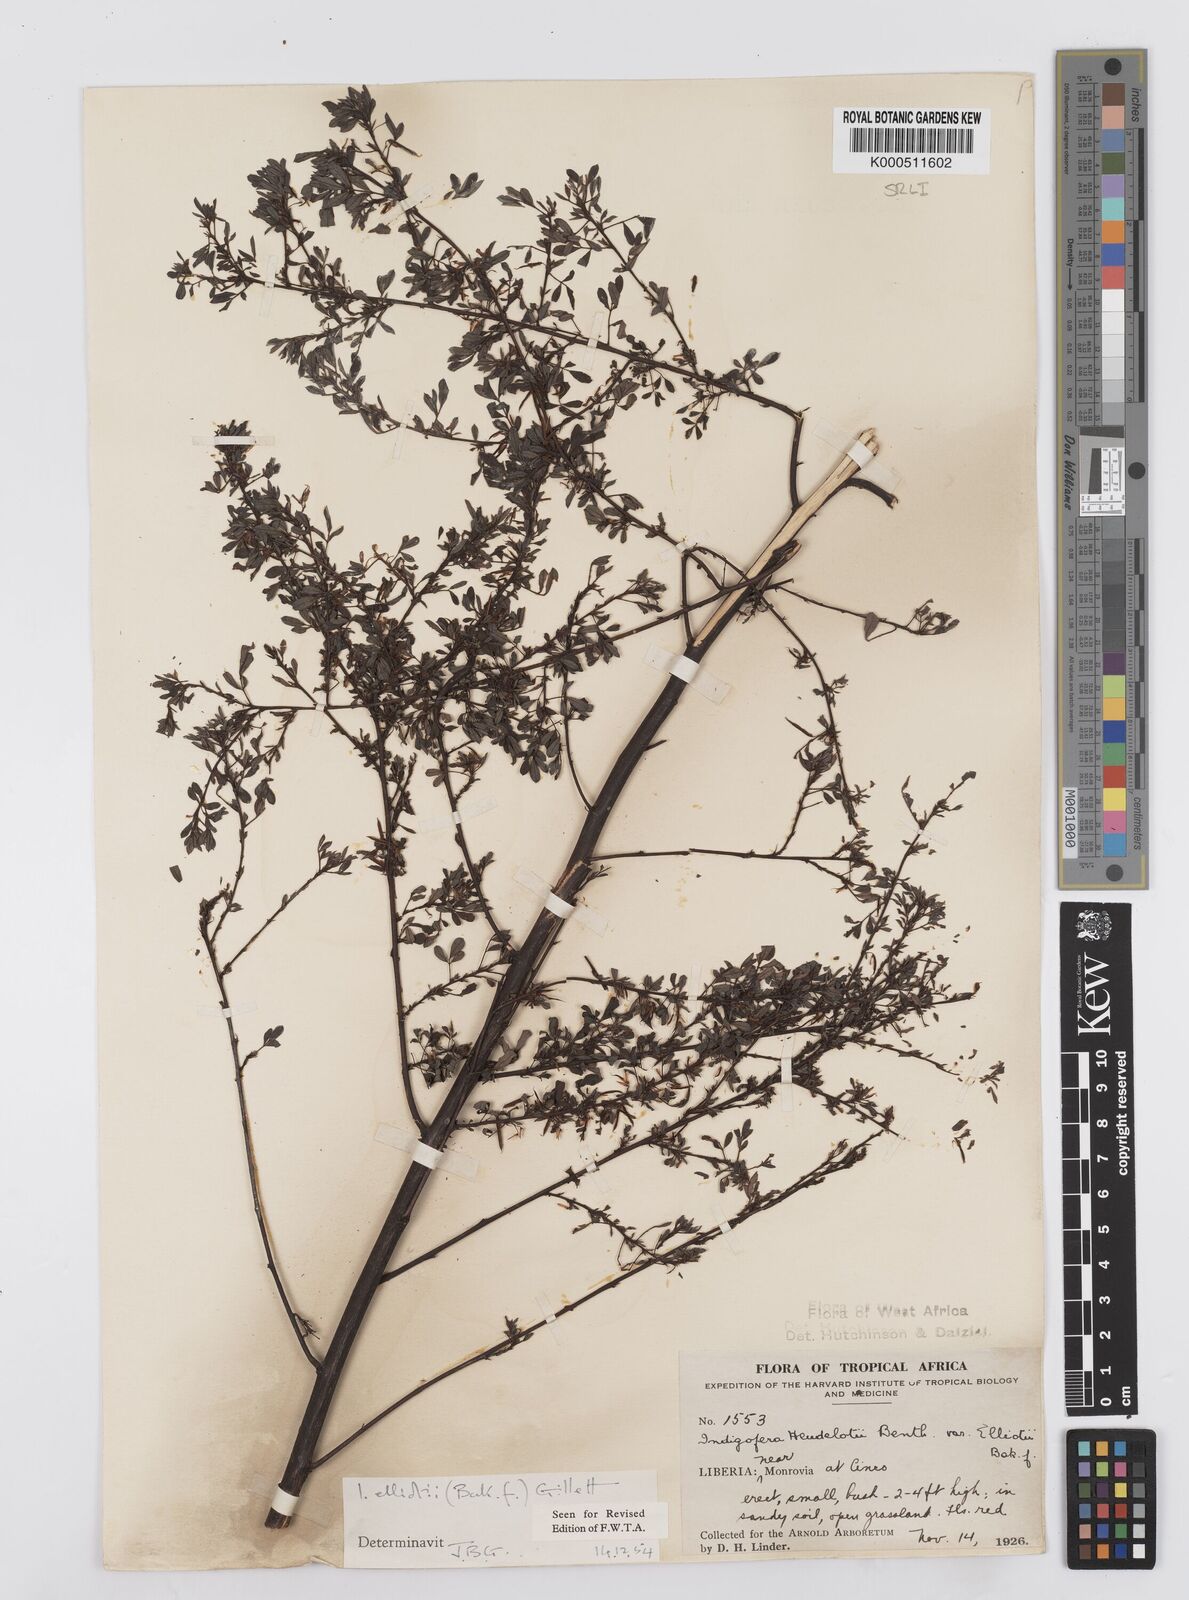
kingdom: Plantae
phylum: Tracheophyta
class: Magnoliopsida
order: Fabales
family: Fabaceae
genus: Indigofera
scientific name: Indigofera elliotii
